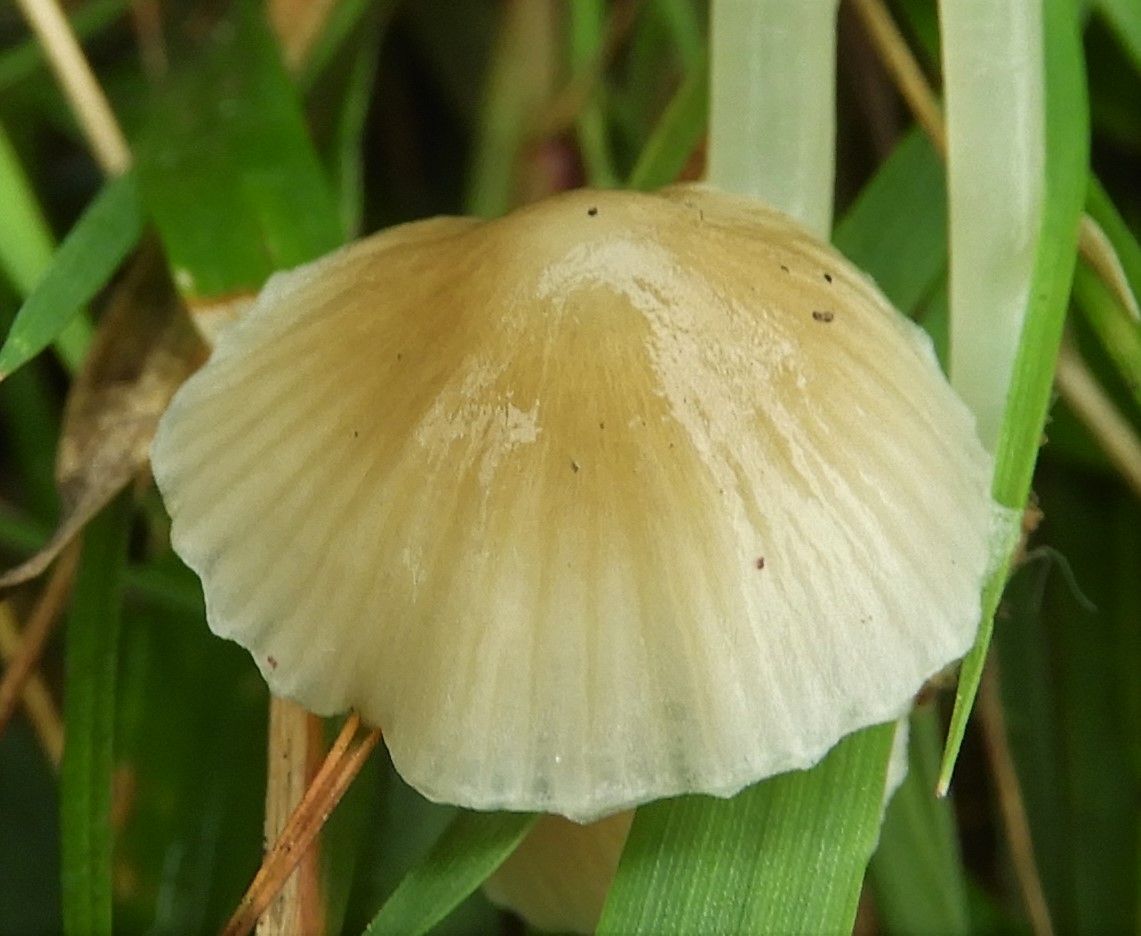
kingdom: Fungi
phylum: Basidiomycota
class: Agaricomycetes
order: Agaricales
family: Mycenaceae
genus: Mycena
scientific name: Mycena epipterygia
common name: gulstokket huesvamp
